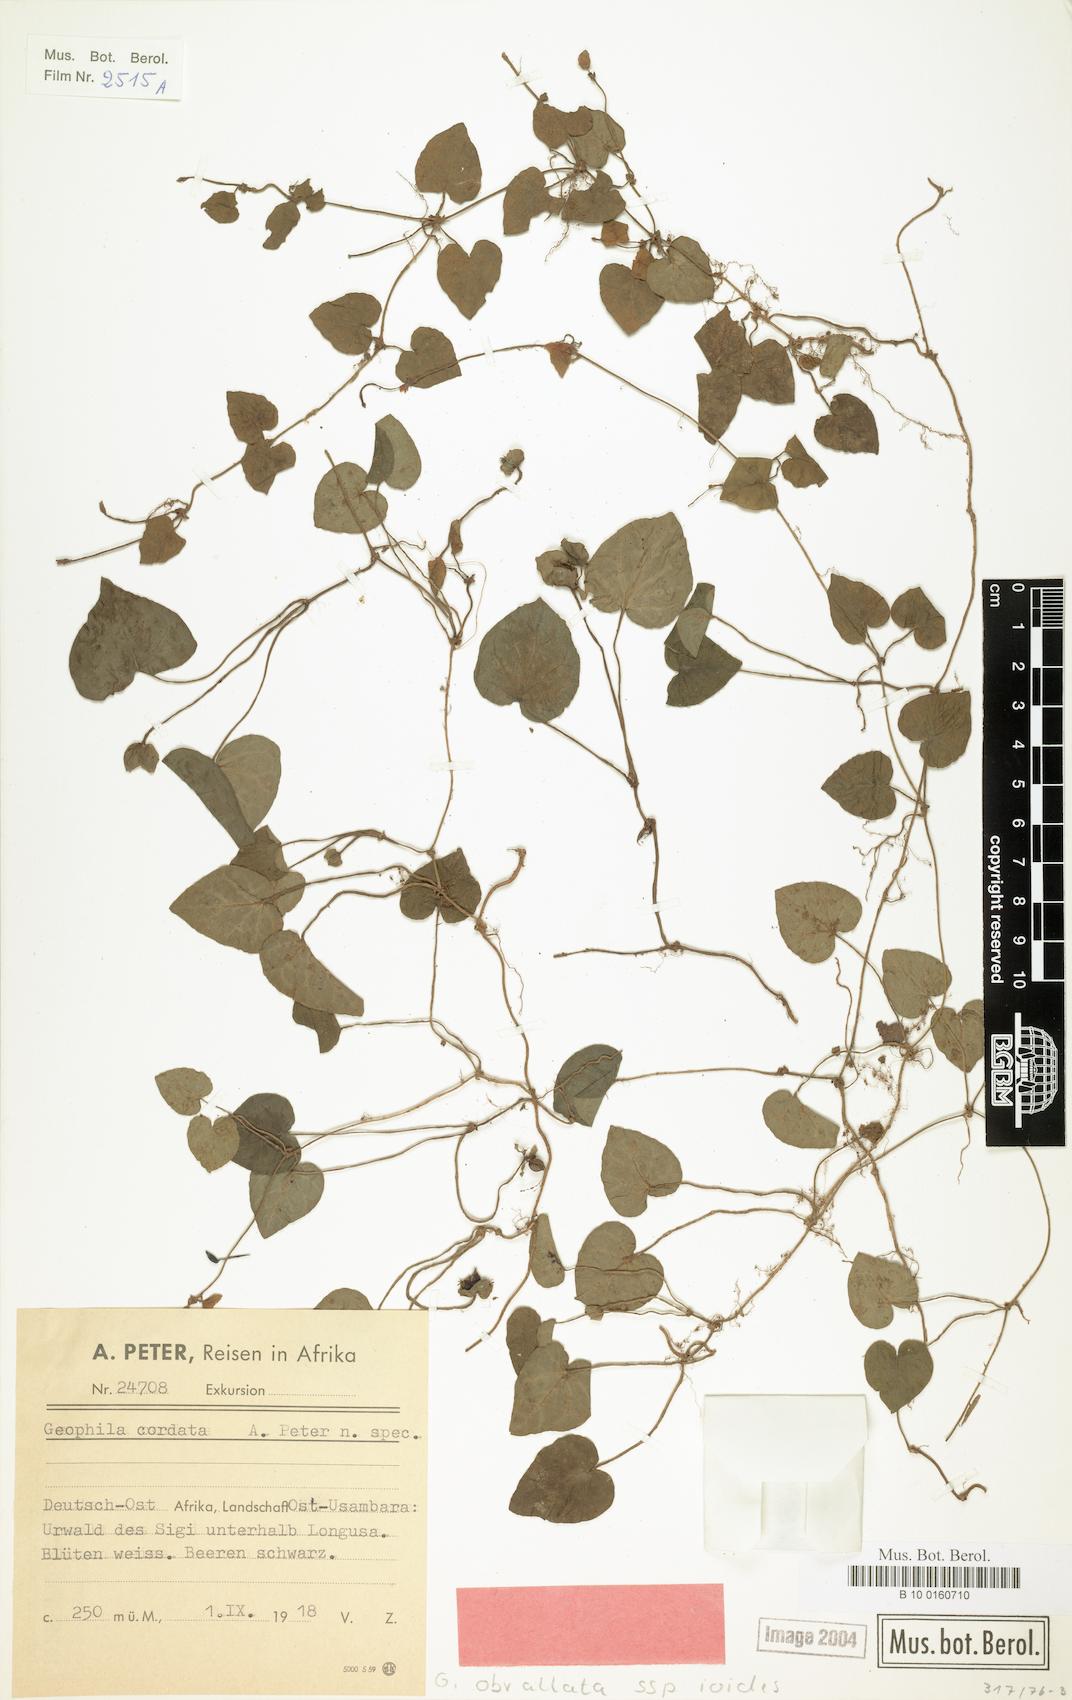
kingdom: Plantae
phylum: Tracheophyta
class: Magnoliopsida
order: Gentianales
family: Rubiaceae
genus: Geophila
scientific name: Geophila obvallata
